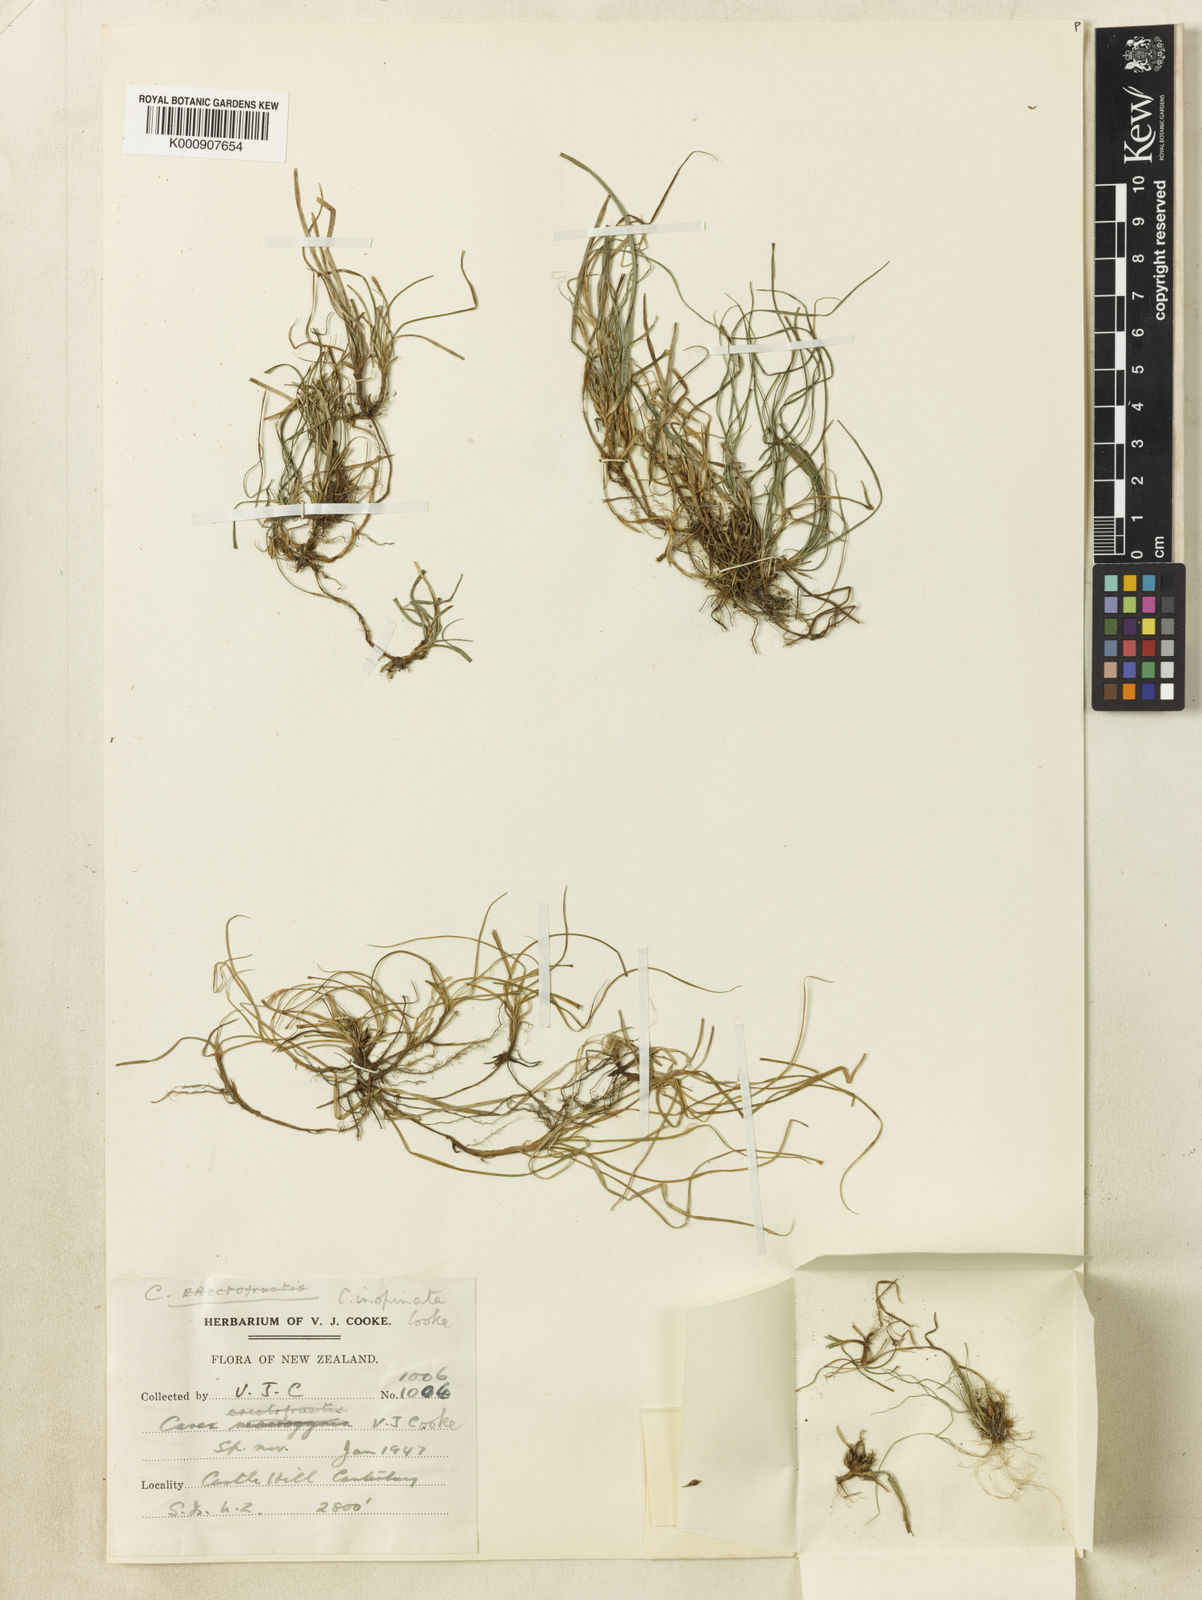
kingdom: Plantae
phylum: Tracheophyta
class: Liliopsida
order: Poales
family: Cyperaceae
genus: Carex
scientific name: Carex inopinata
